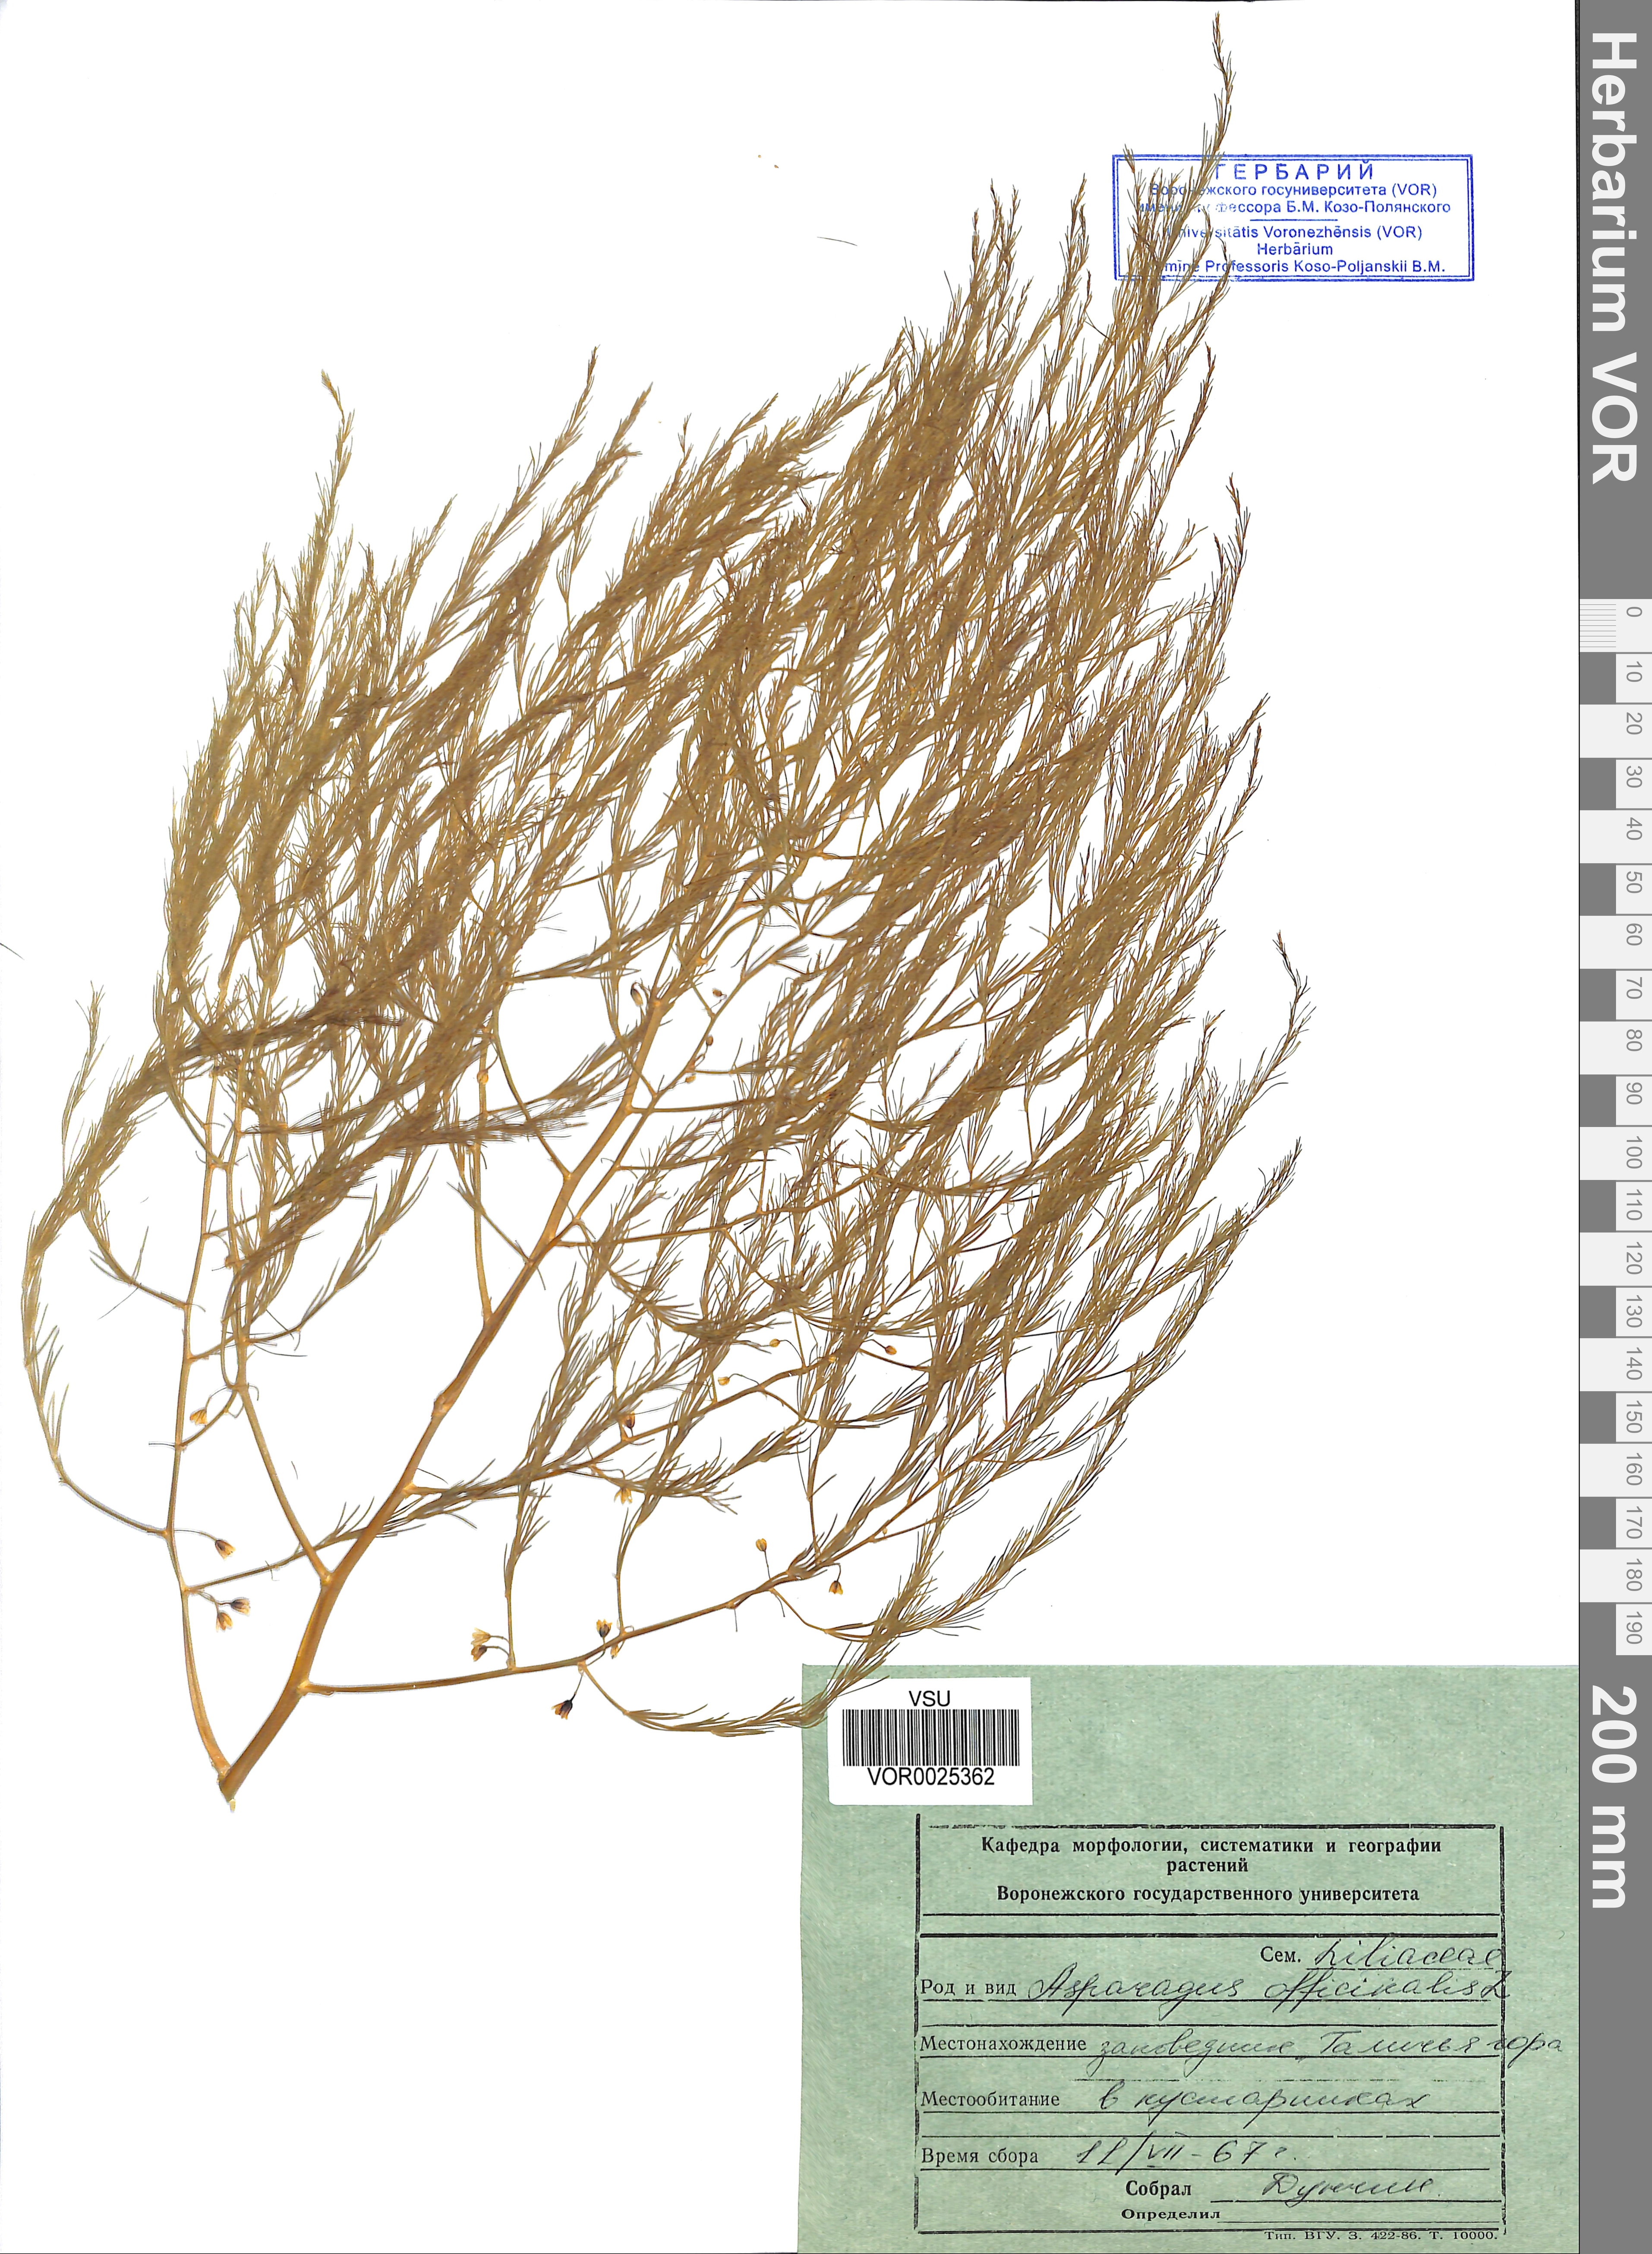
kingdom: Plantae
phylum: Tracheophyta
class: Liliopsida
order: Asparagales
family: Asparagaceae
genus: Asparagus
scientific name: Asparagus officinalis
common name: Garden asparagus
